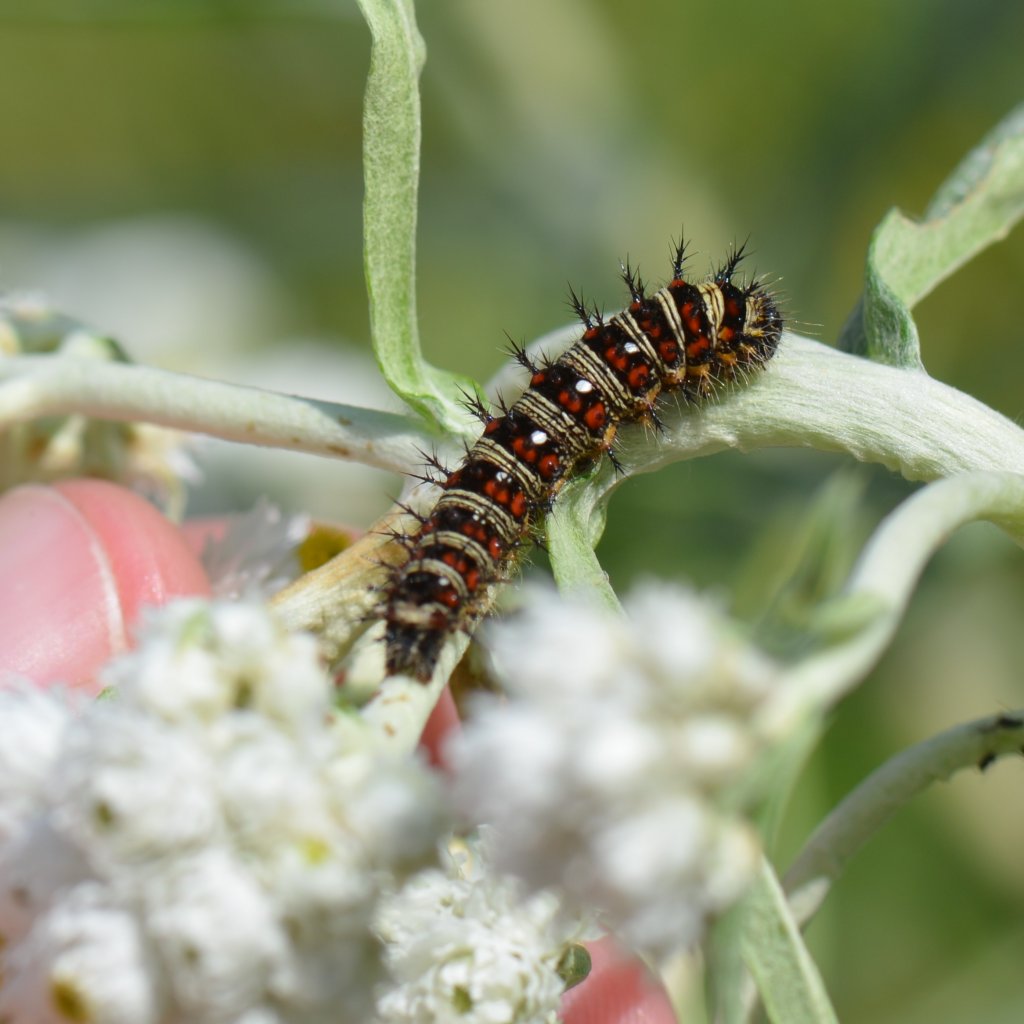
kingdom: Animalia
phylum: Arthropoda
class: Insecta
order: Lepidoptera
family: Nymphalidae
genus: Vanessa
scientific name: Vanessa virginiensis
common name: American Lady
